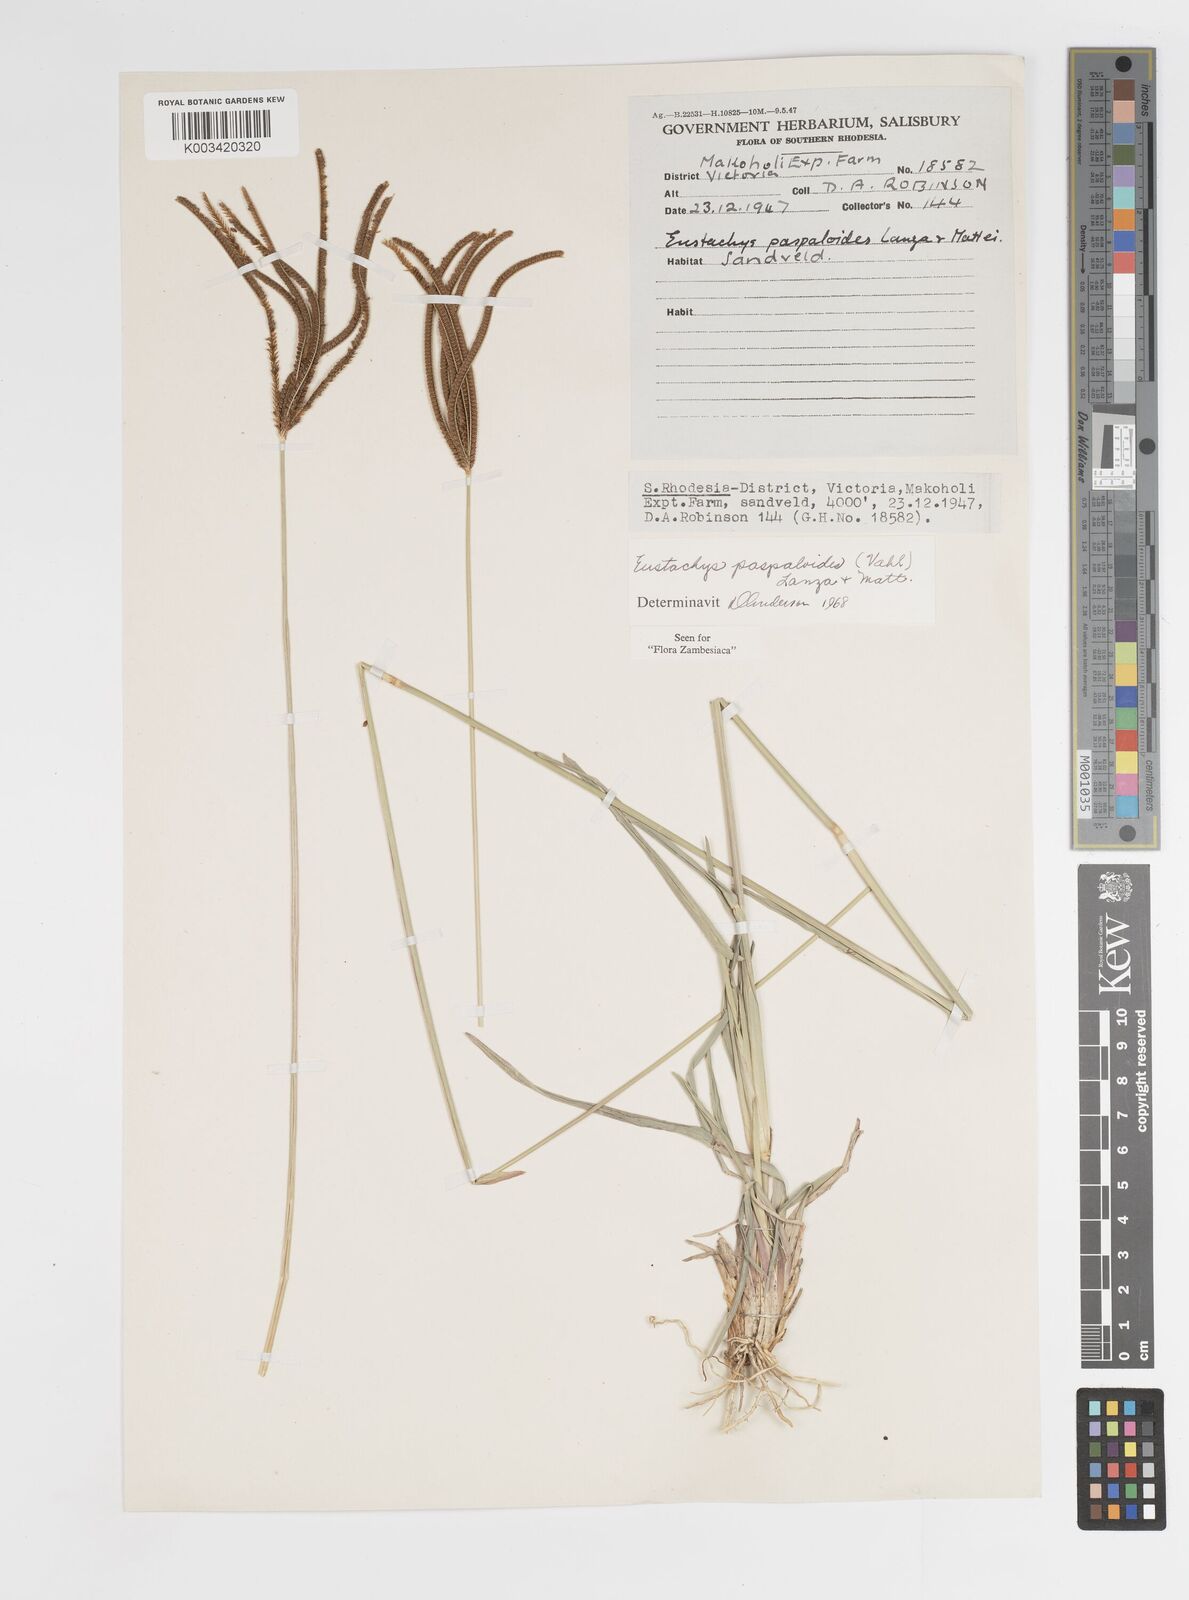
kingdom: Plantae
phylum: Tracheophyta
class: Liliopsida
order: Poales
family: Poaceae
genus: Eustachys
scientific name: Eustachys paspaloides
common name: Caribbean fingergrass
